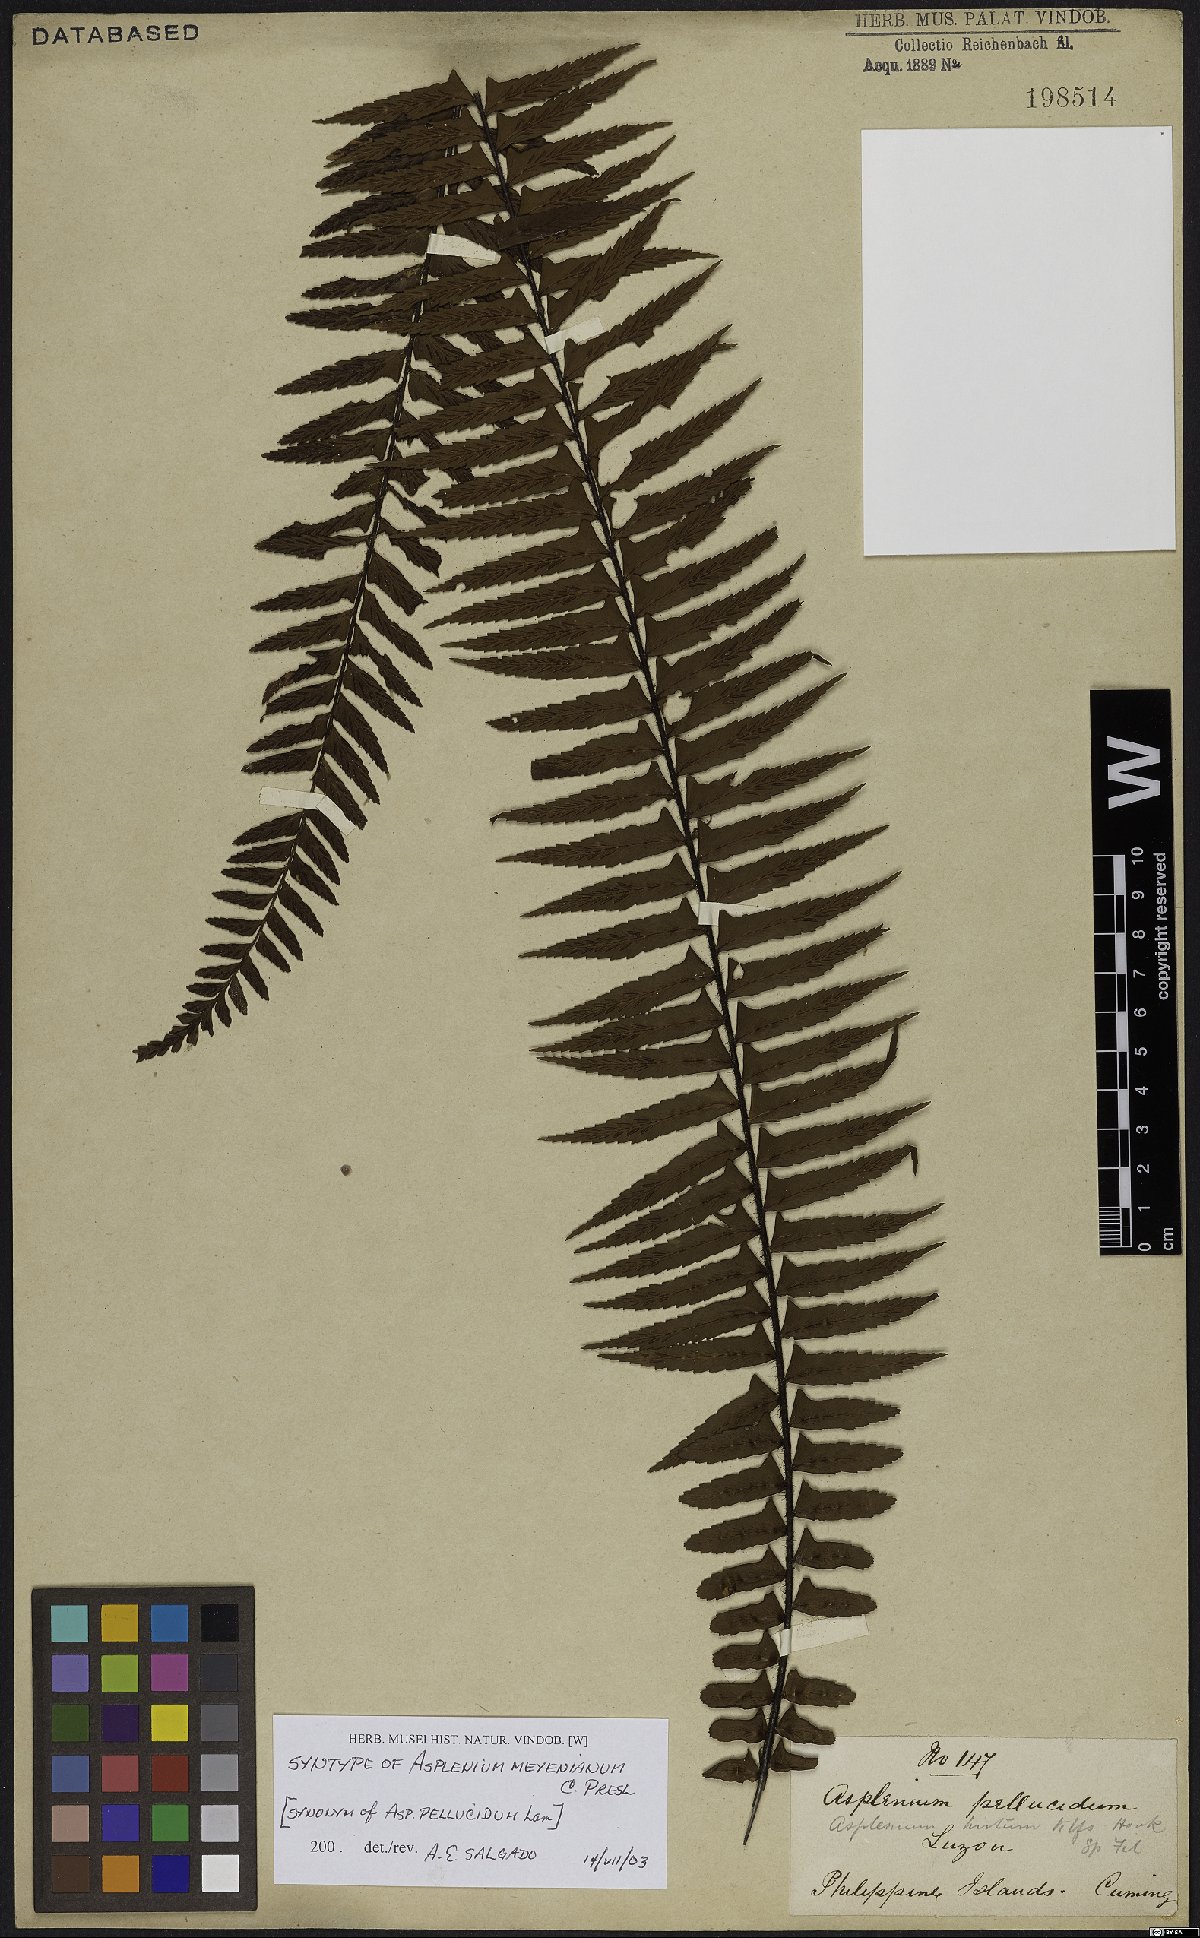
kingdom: Plantae
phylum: Tracheophyta
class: Polypodiopsida
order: Polypodiales
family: Aspleniaceae
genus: Asplenium
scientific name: Asplenium pellucidum
